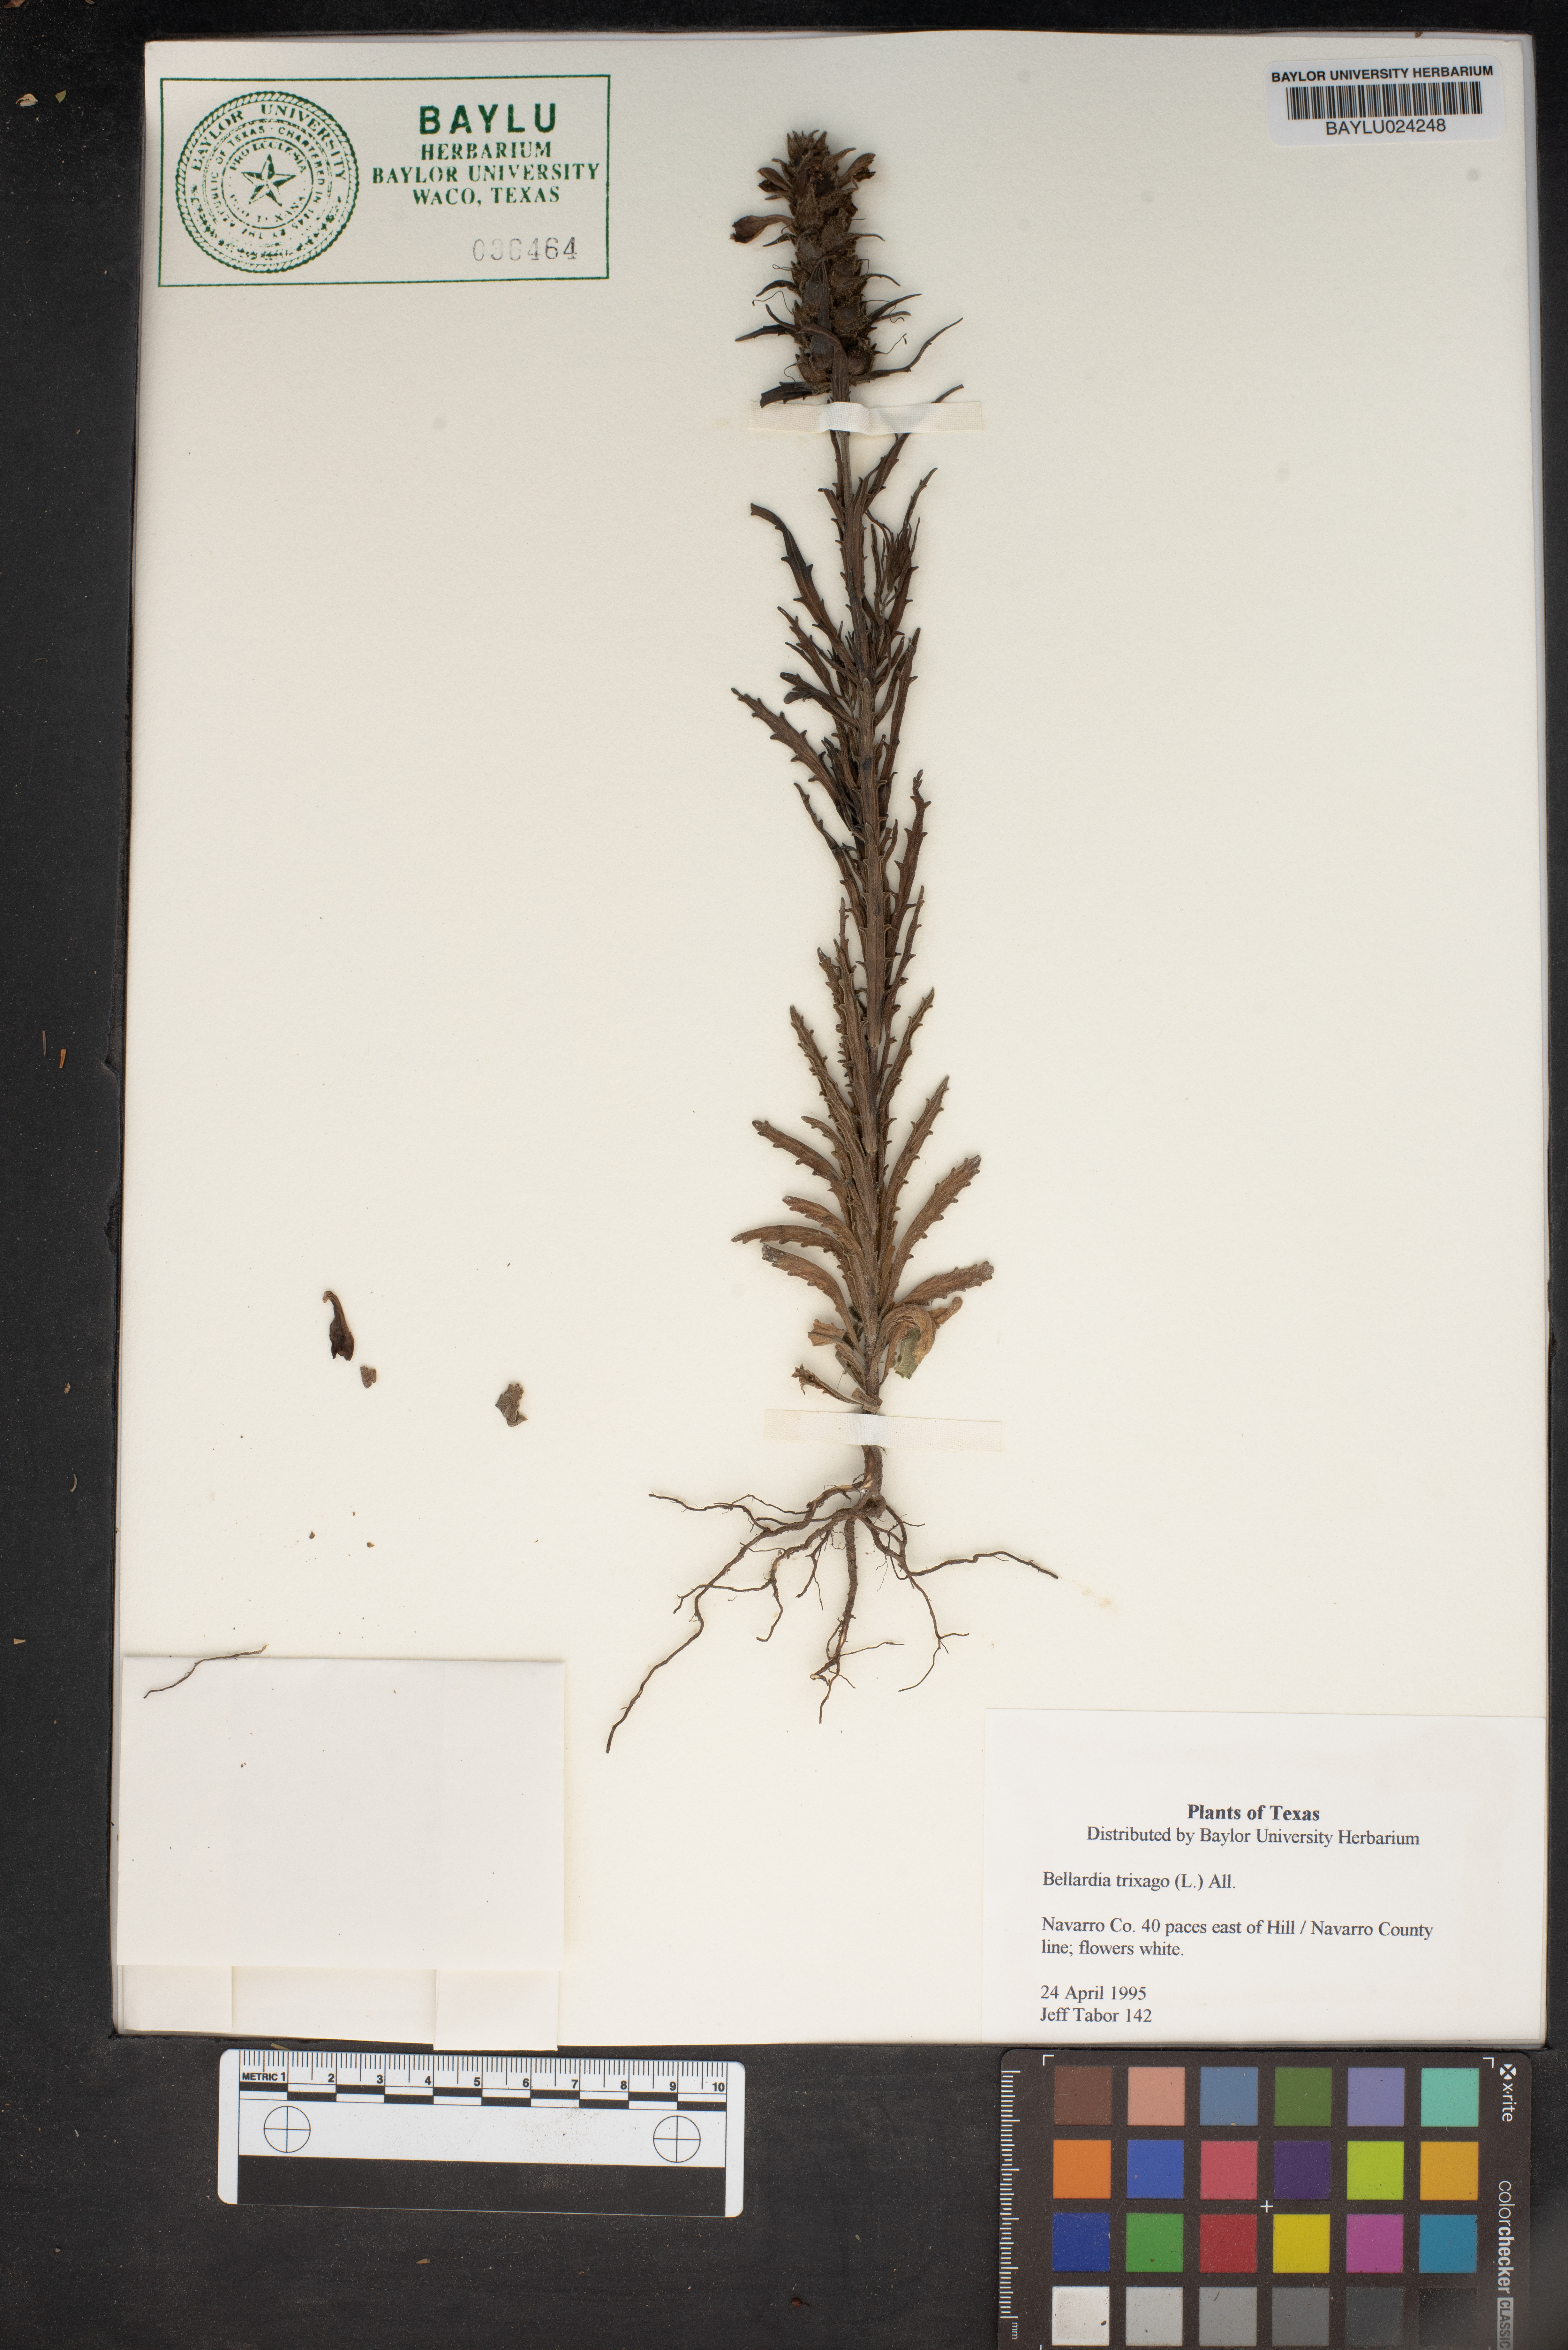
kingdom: Plantae
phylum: Tracheophyta
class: Magnoliopsida
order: Lamiales
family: Orobanchaceae
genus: Bellardia
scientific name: Bellardia trixago
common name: Mediterranean lineseed
